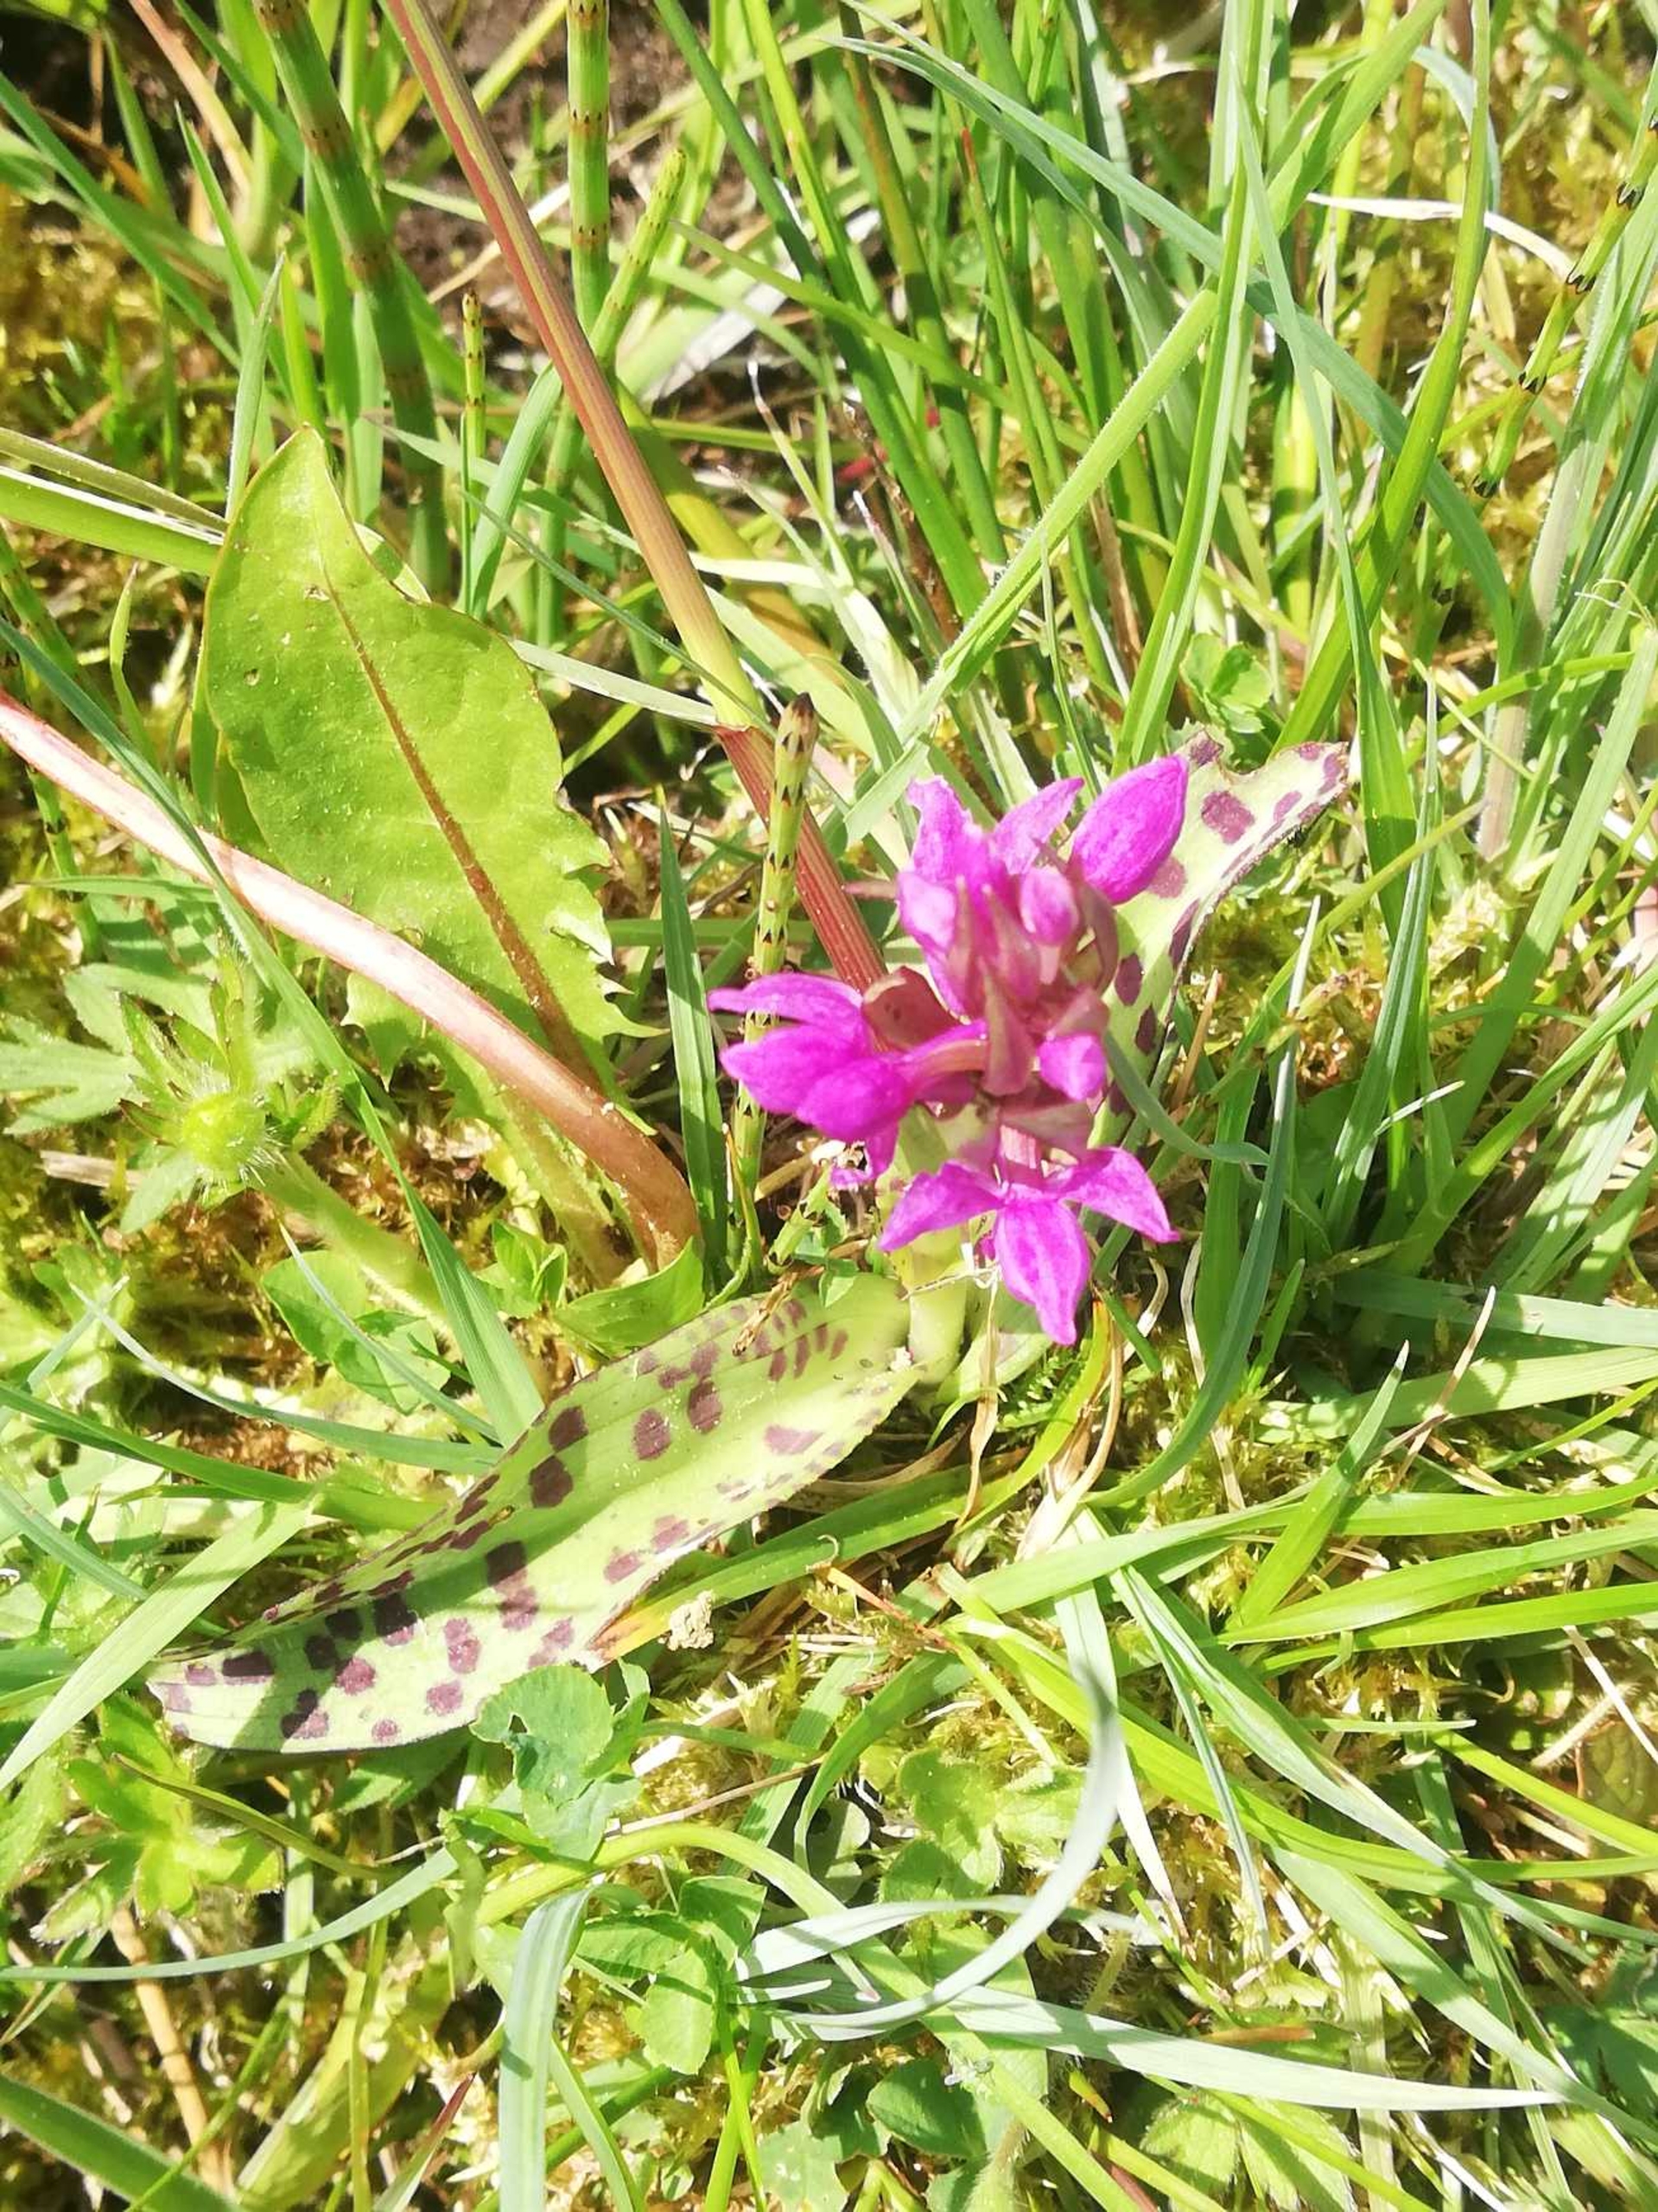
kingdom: Plantae
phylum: Tracheophyta
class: Liliopsida
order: Asparagales
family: Orchidaceae
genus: Dactylorhiza
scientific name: Dactylorhiza majalis
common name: Maj-gøgeurt
